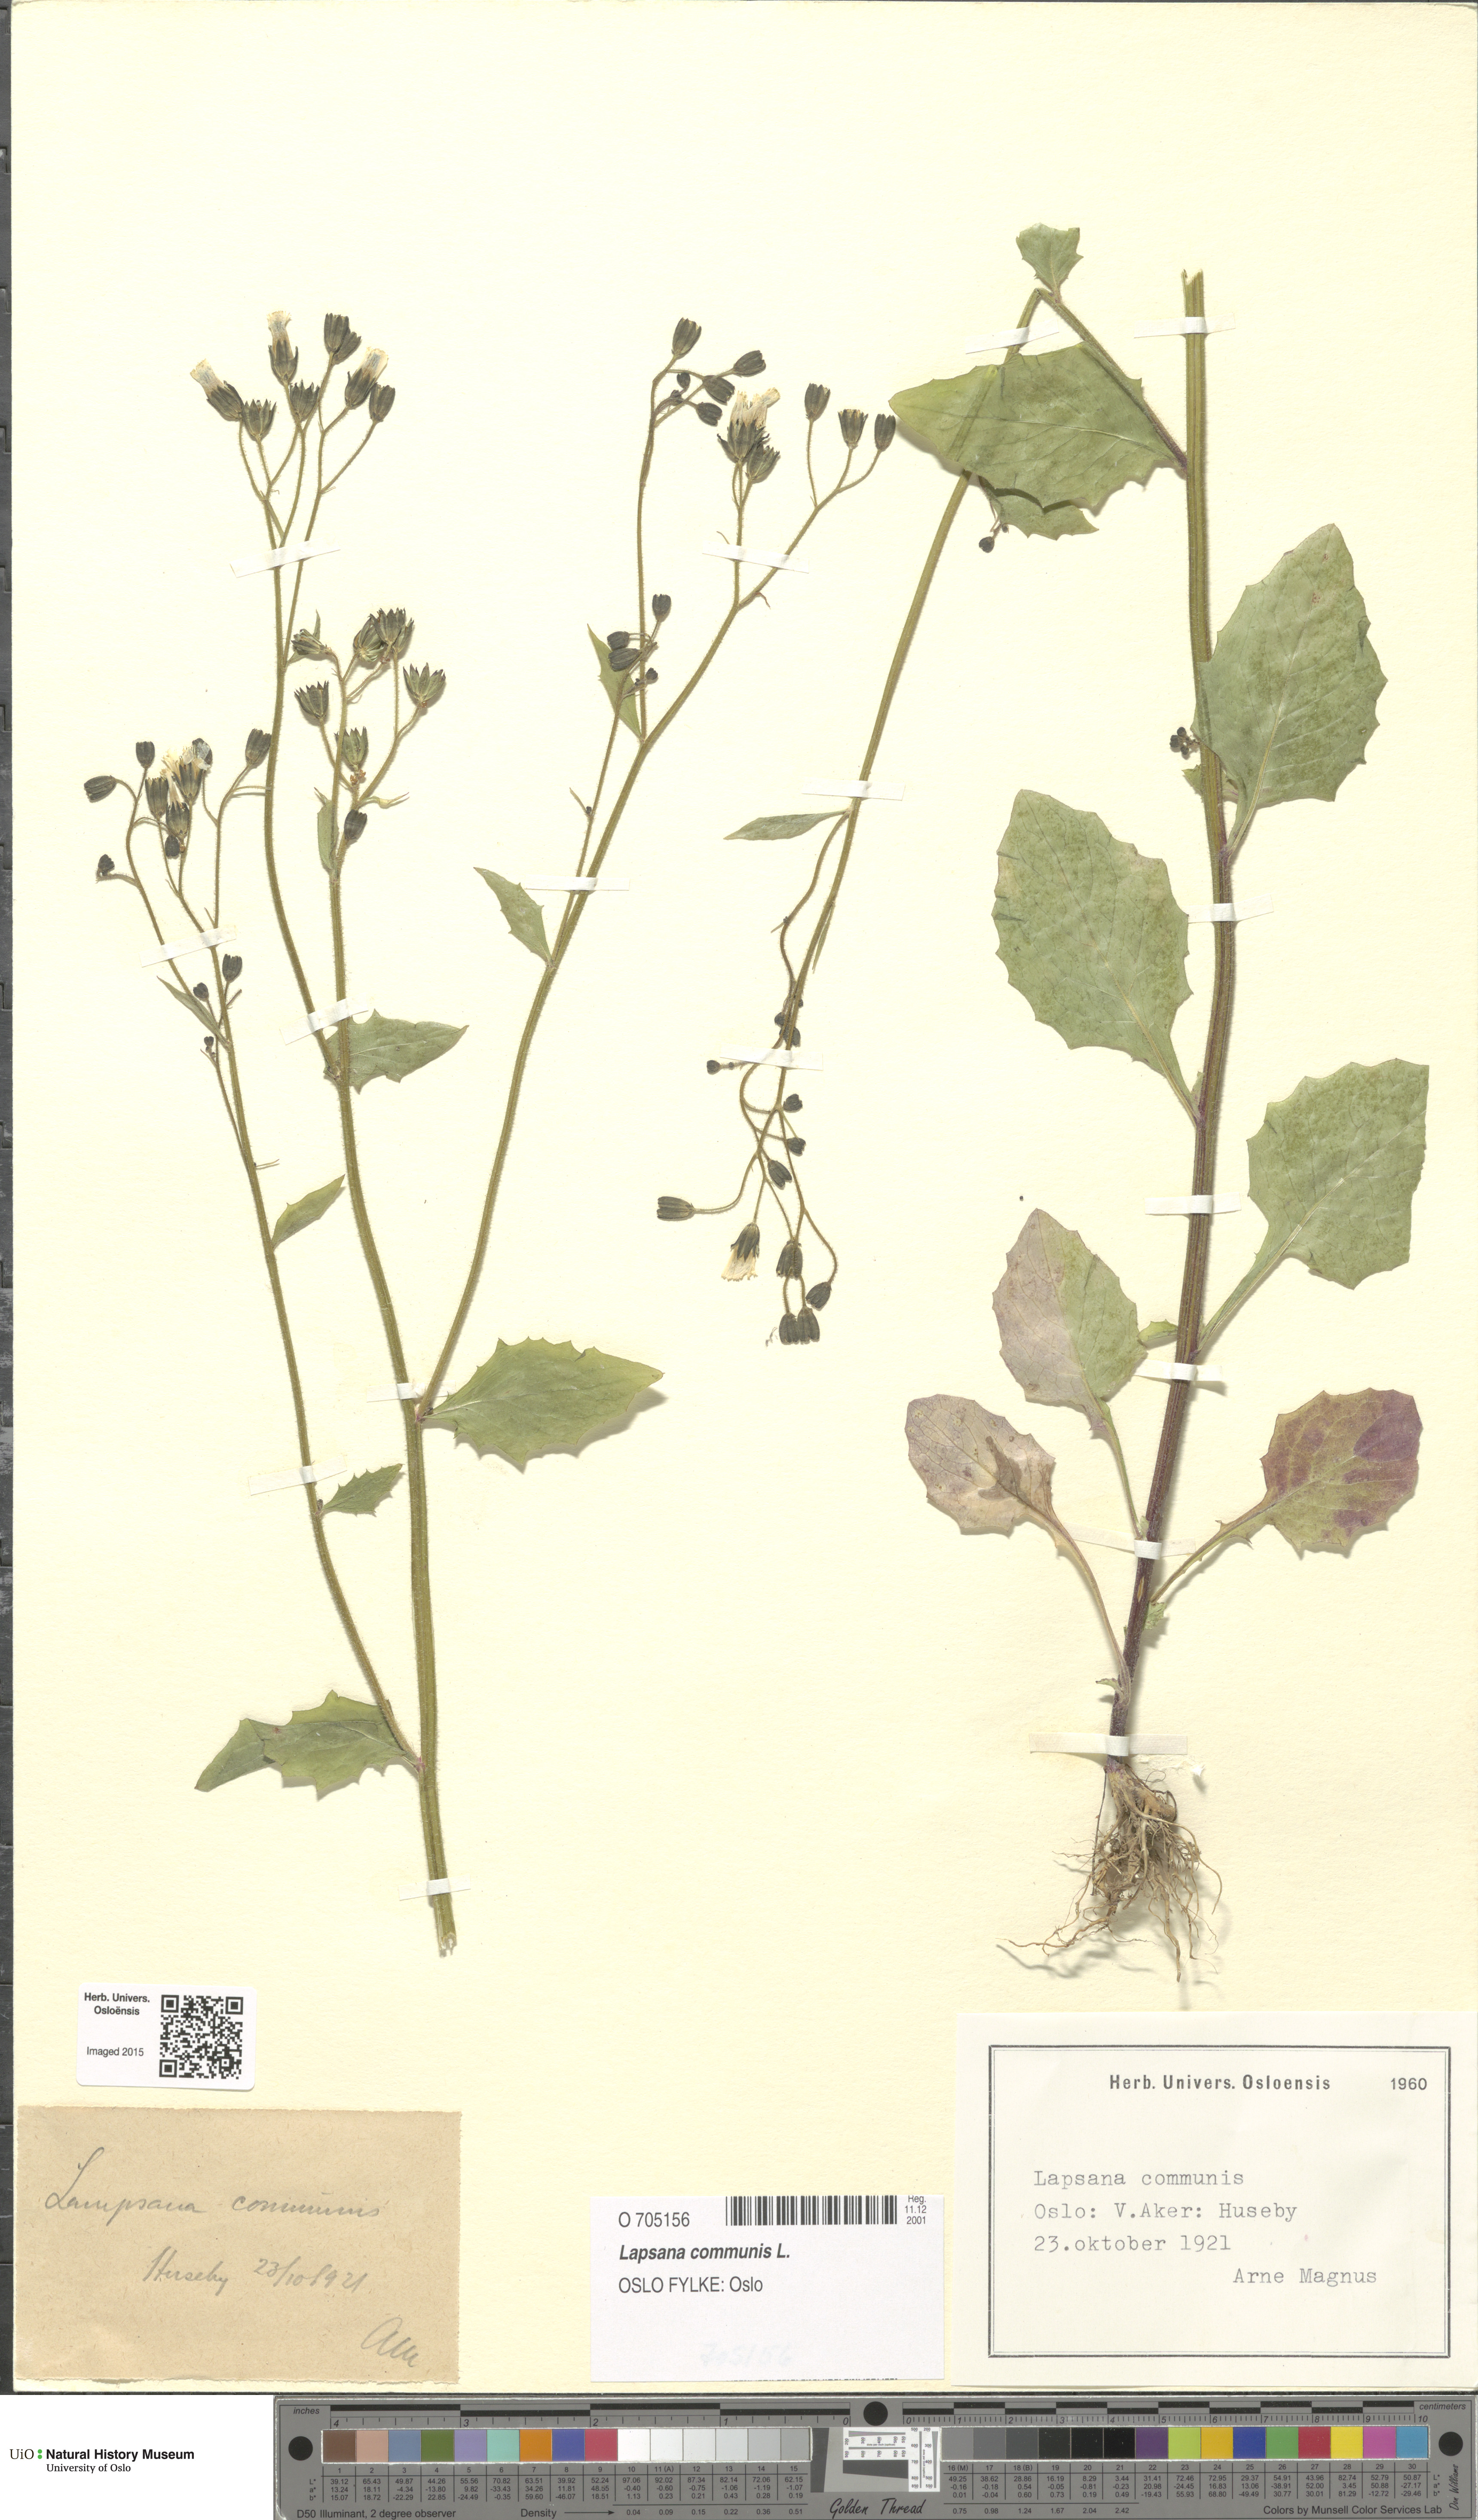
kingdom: Plantae
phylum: Tracheophyta
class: Magnoliopsida
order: Asterales
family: Asteraceae
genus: Lapsana
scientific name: Lapsana communis
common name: Nipplewort
